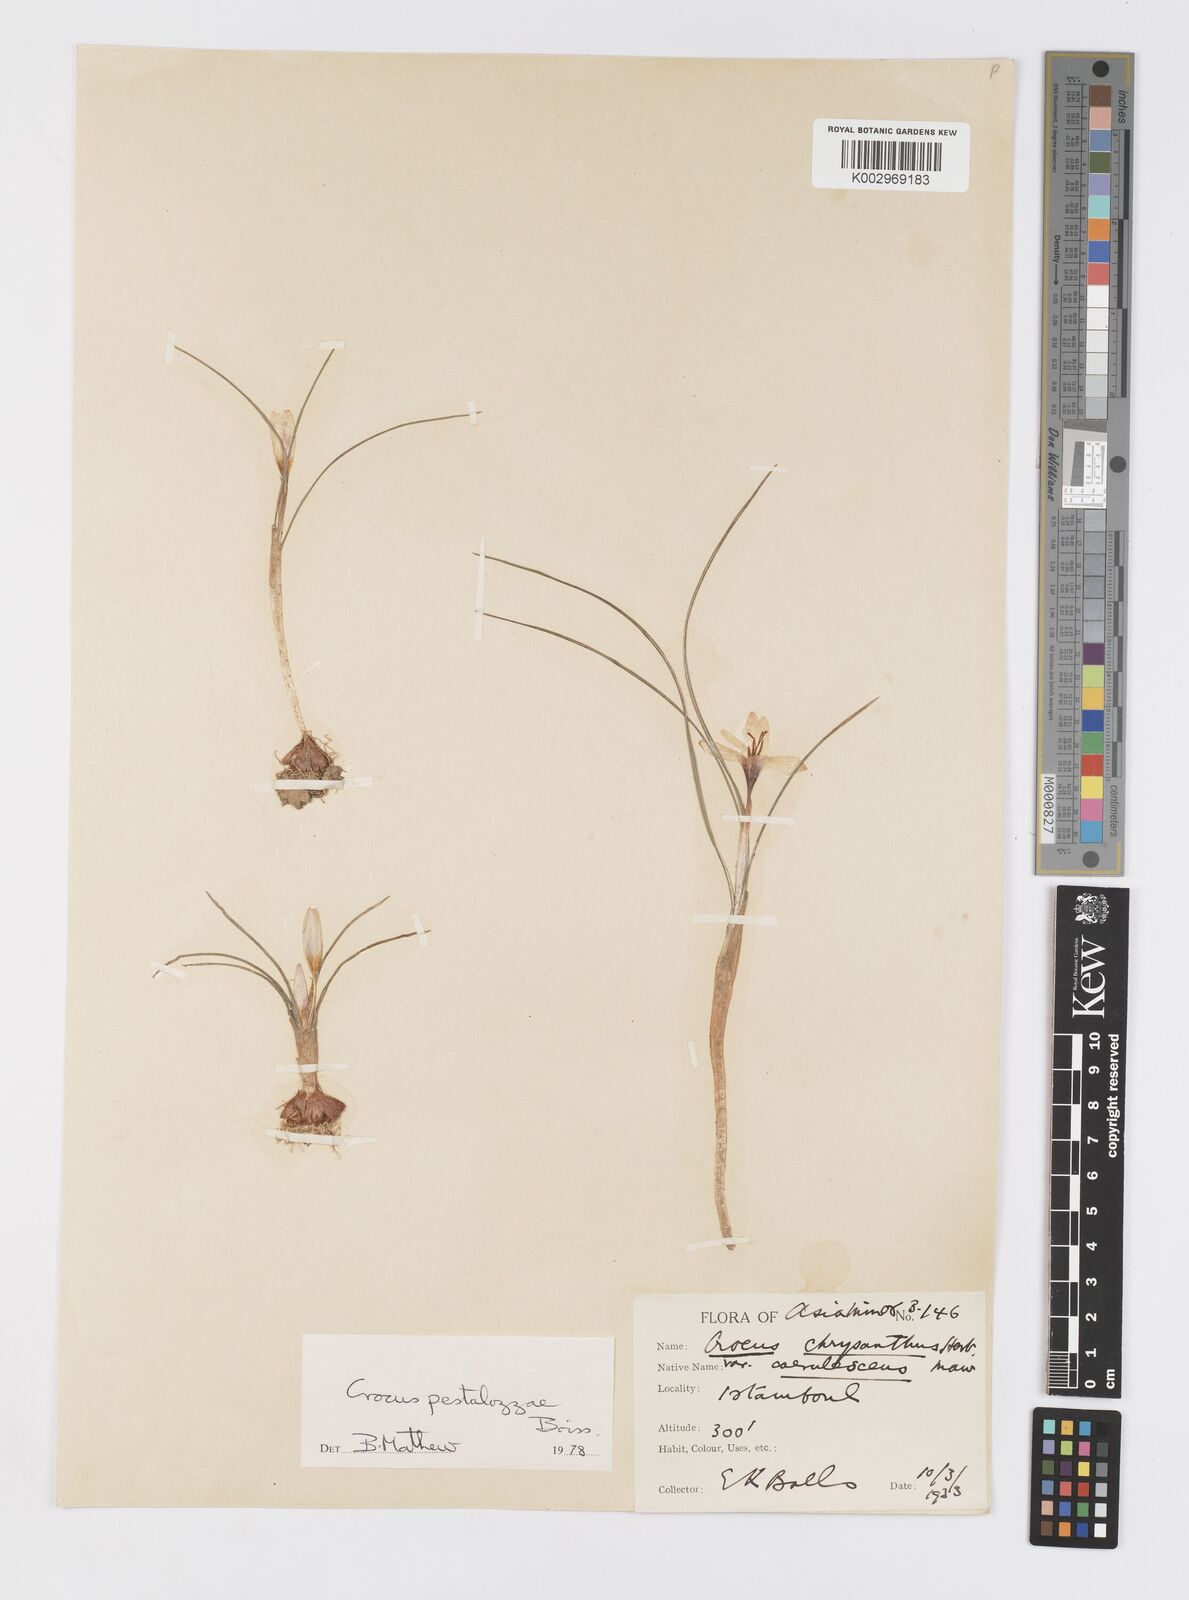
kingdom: Plantae
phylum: Tracheophyta
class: Liliopsida
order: Asparagales
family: Iridaceae
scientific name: Iridaceae
